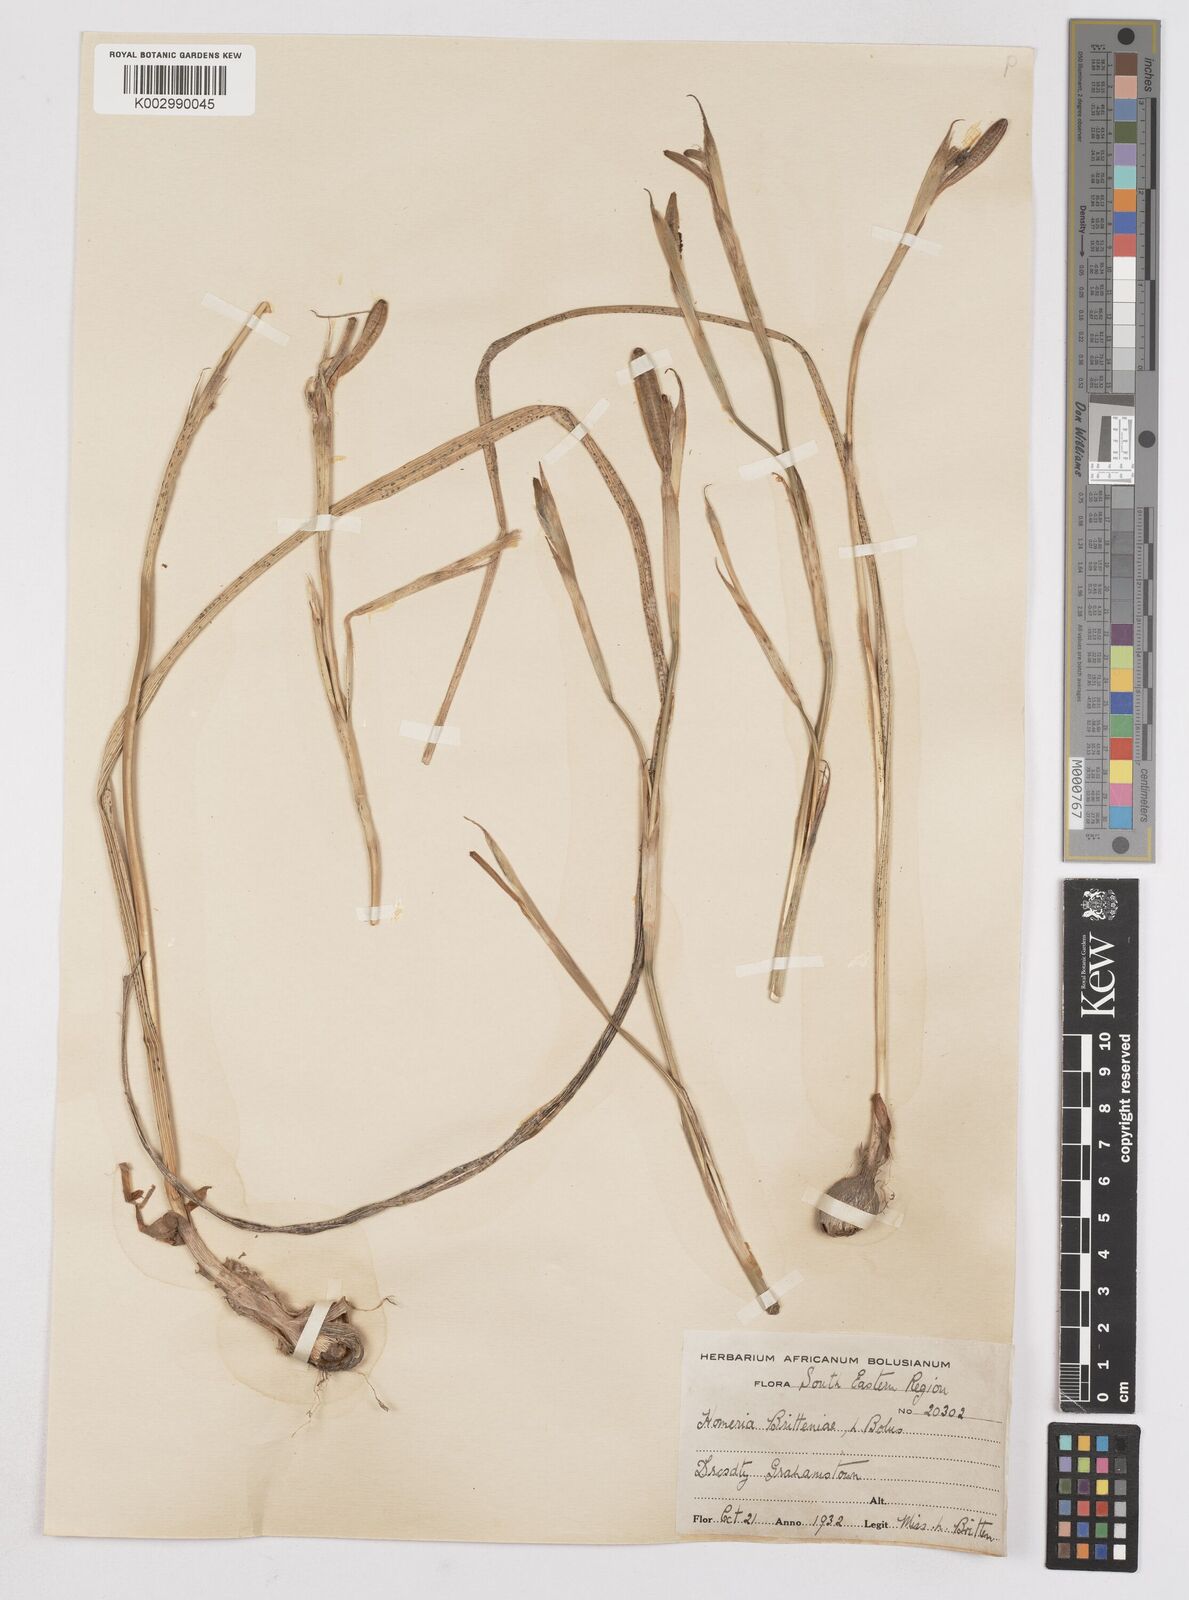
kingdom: Plantae
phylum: Tracheophyta
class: Liliopsida
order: Asparagales
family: Iridaceae
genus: Moraea
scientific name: Moraea britteniae
